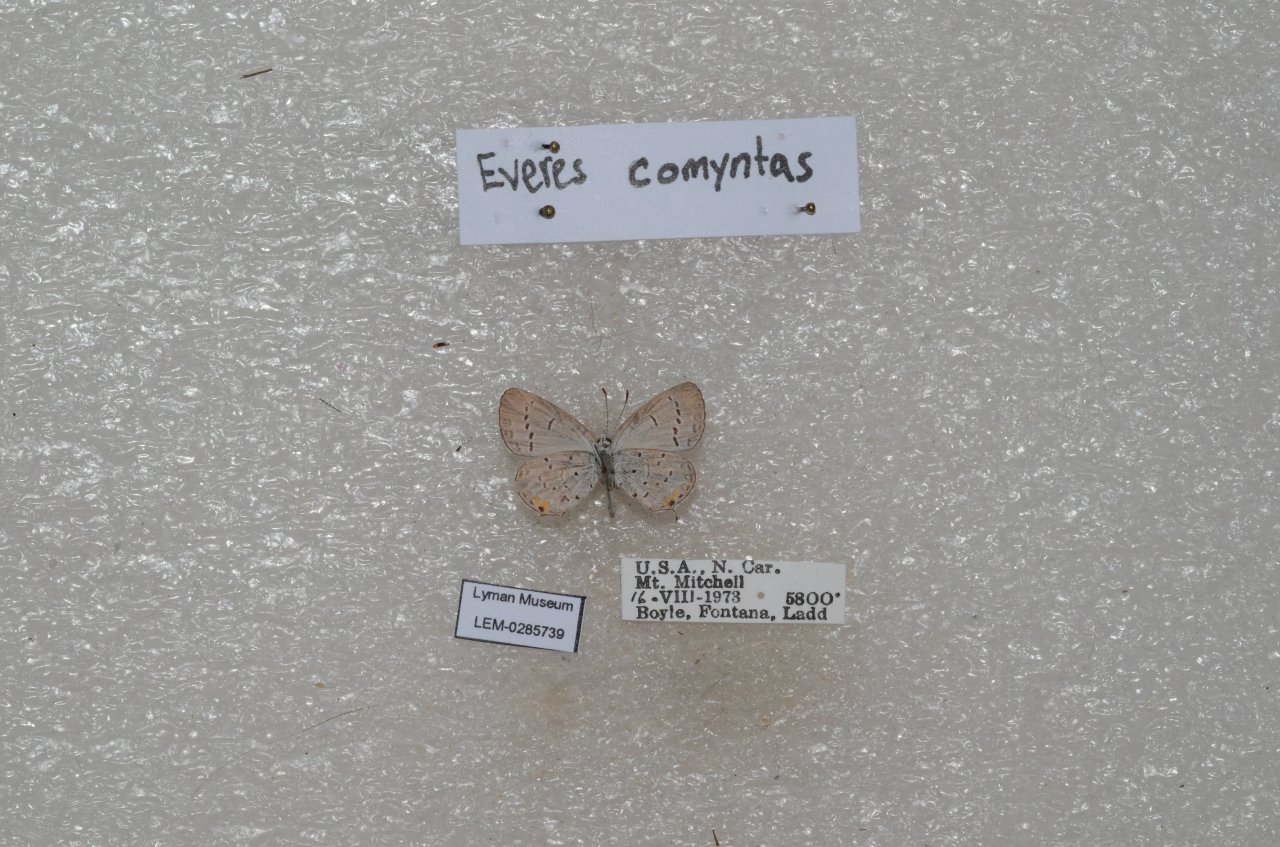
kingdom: Animalia
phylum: Arthropoda
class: Insecta
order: Lepidoptera
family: Lycaenidae
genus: Elkalyce
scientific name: Elkalyce comyntas
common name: Eastern Tailed-Blue
